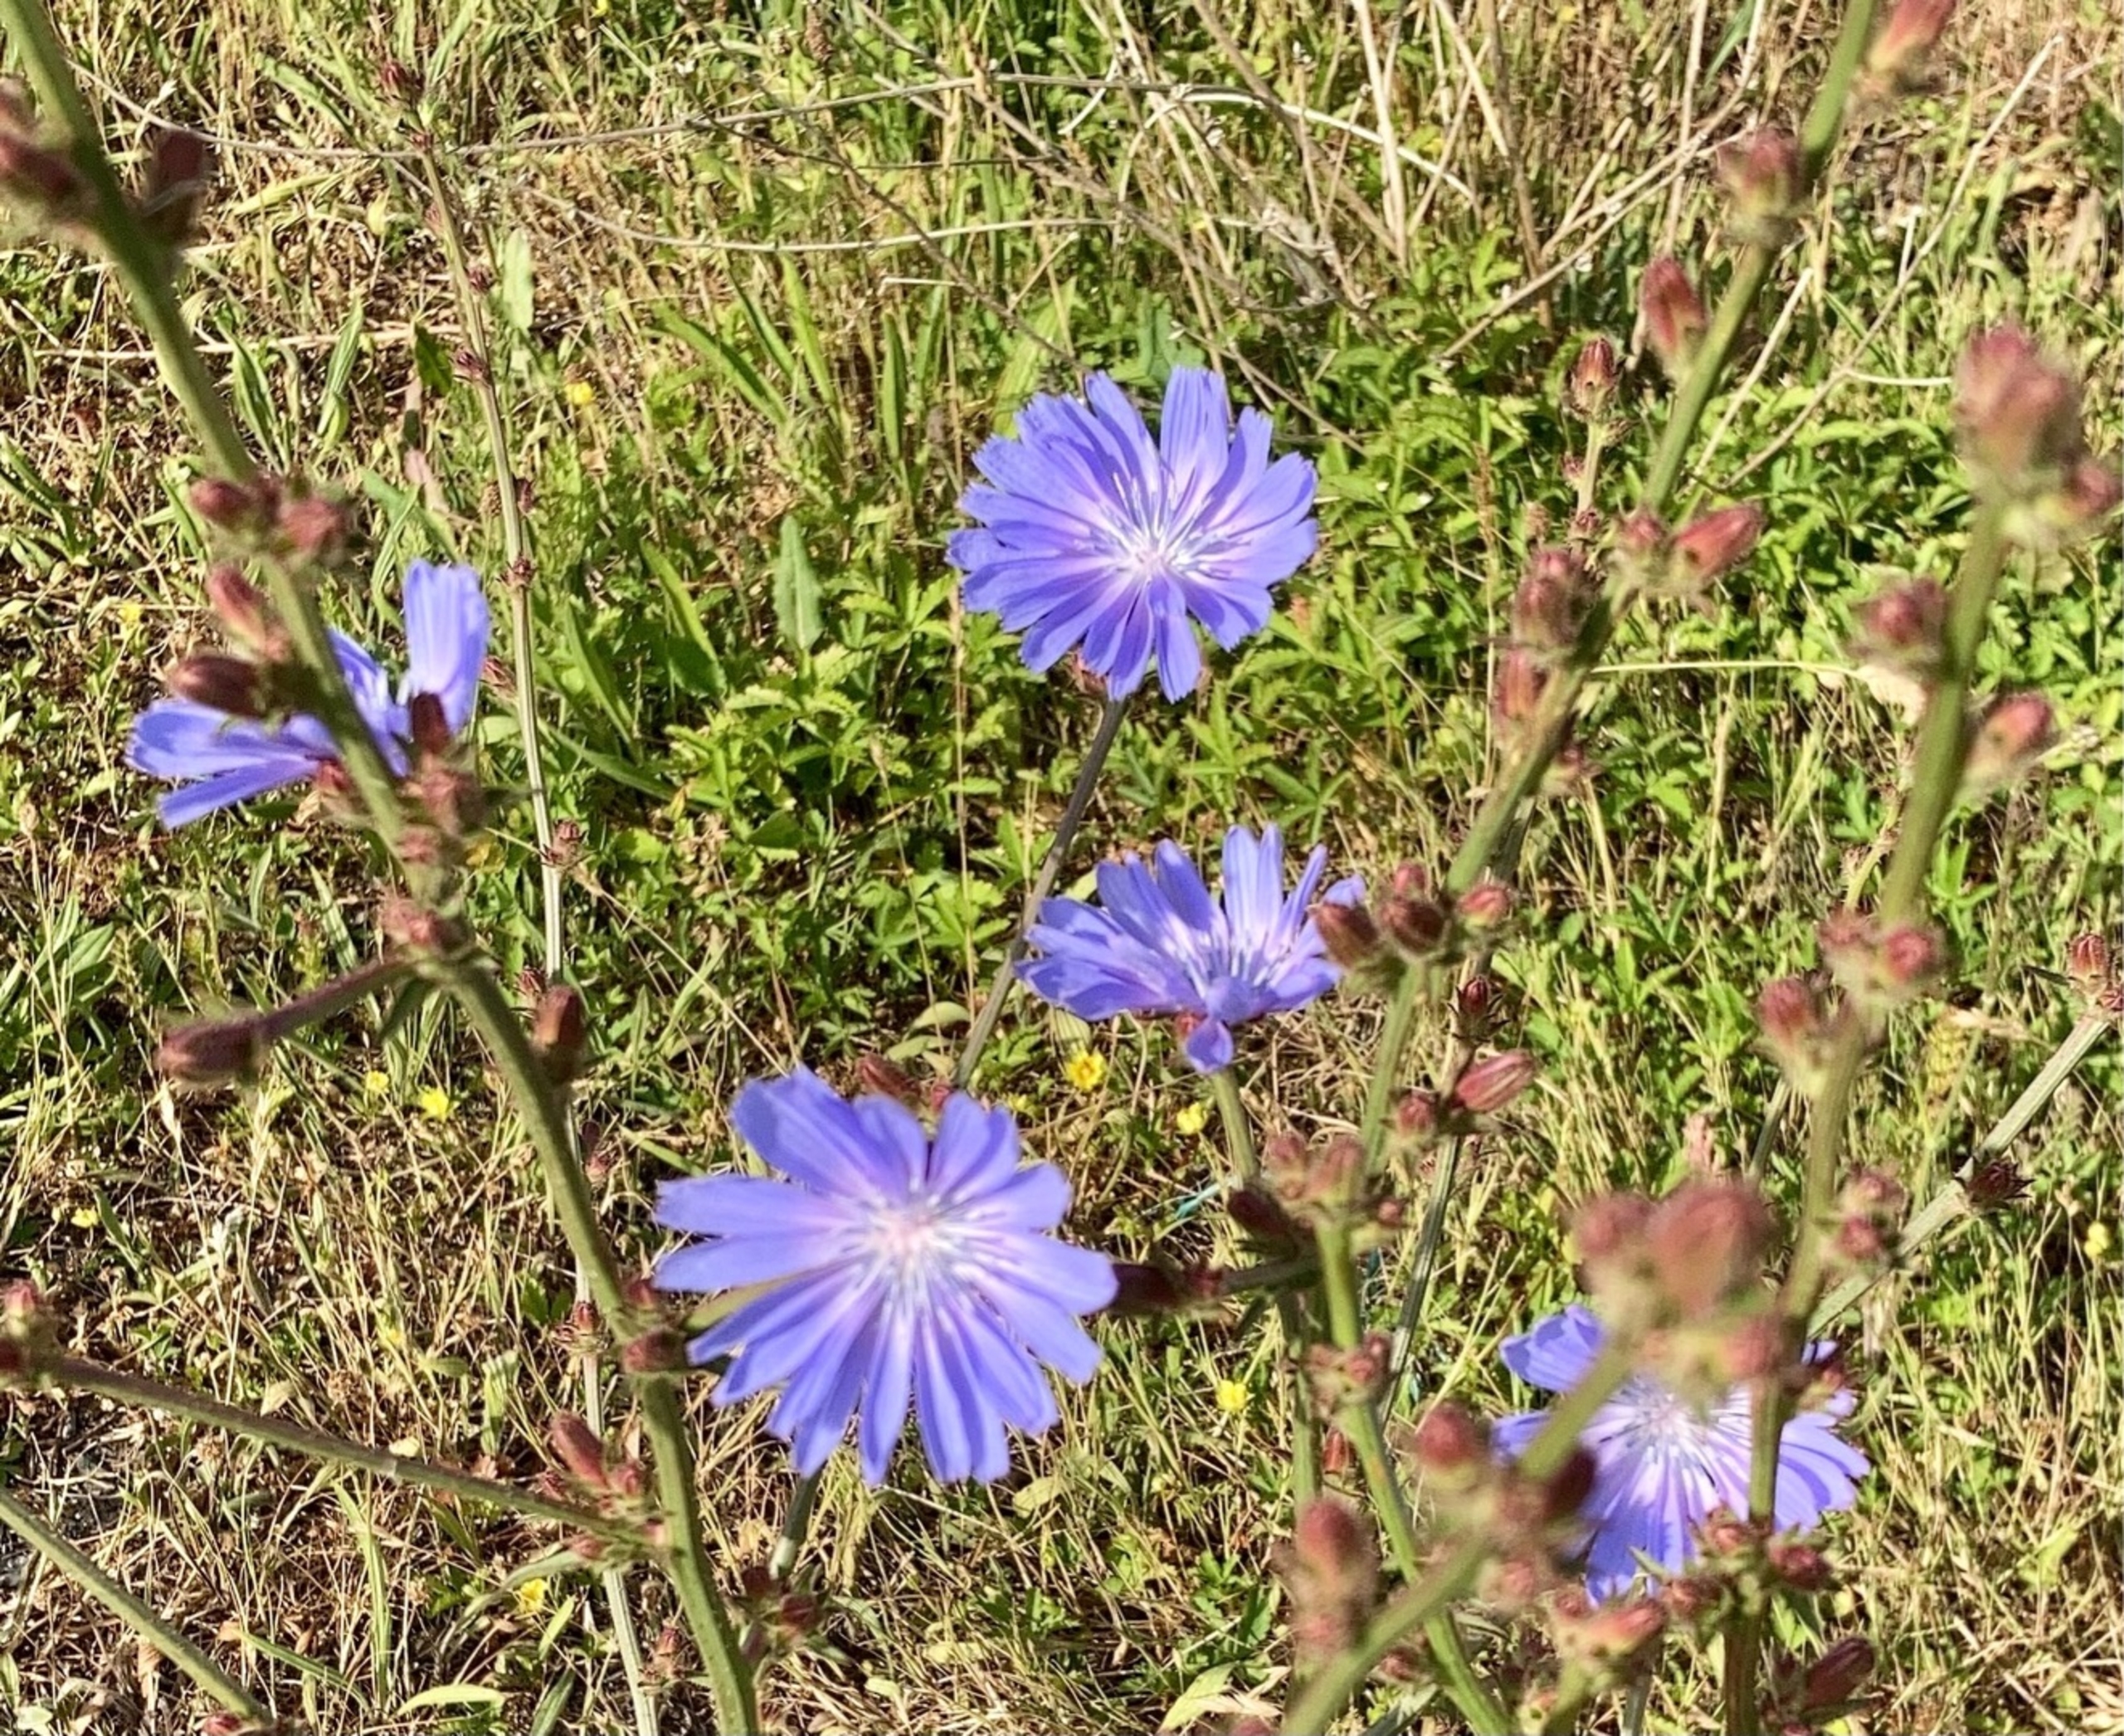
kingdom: Plantae
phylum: Tracheophyta
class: Magnoliopsida
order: Asterales
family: Asteraceae
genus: Cichorium
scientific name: Cichorium intybus
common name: Cikorie
